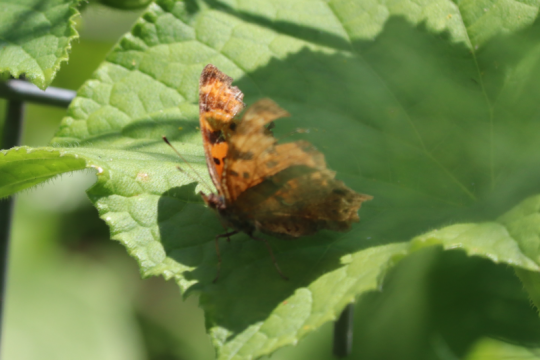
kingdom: Animalia
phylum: Arthropoda
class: Insecta
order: Lepidoptera
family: Nymphalidae
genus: Polygonia
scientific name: Polygonia comma
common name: Eastern Comma
